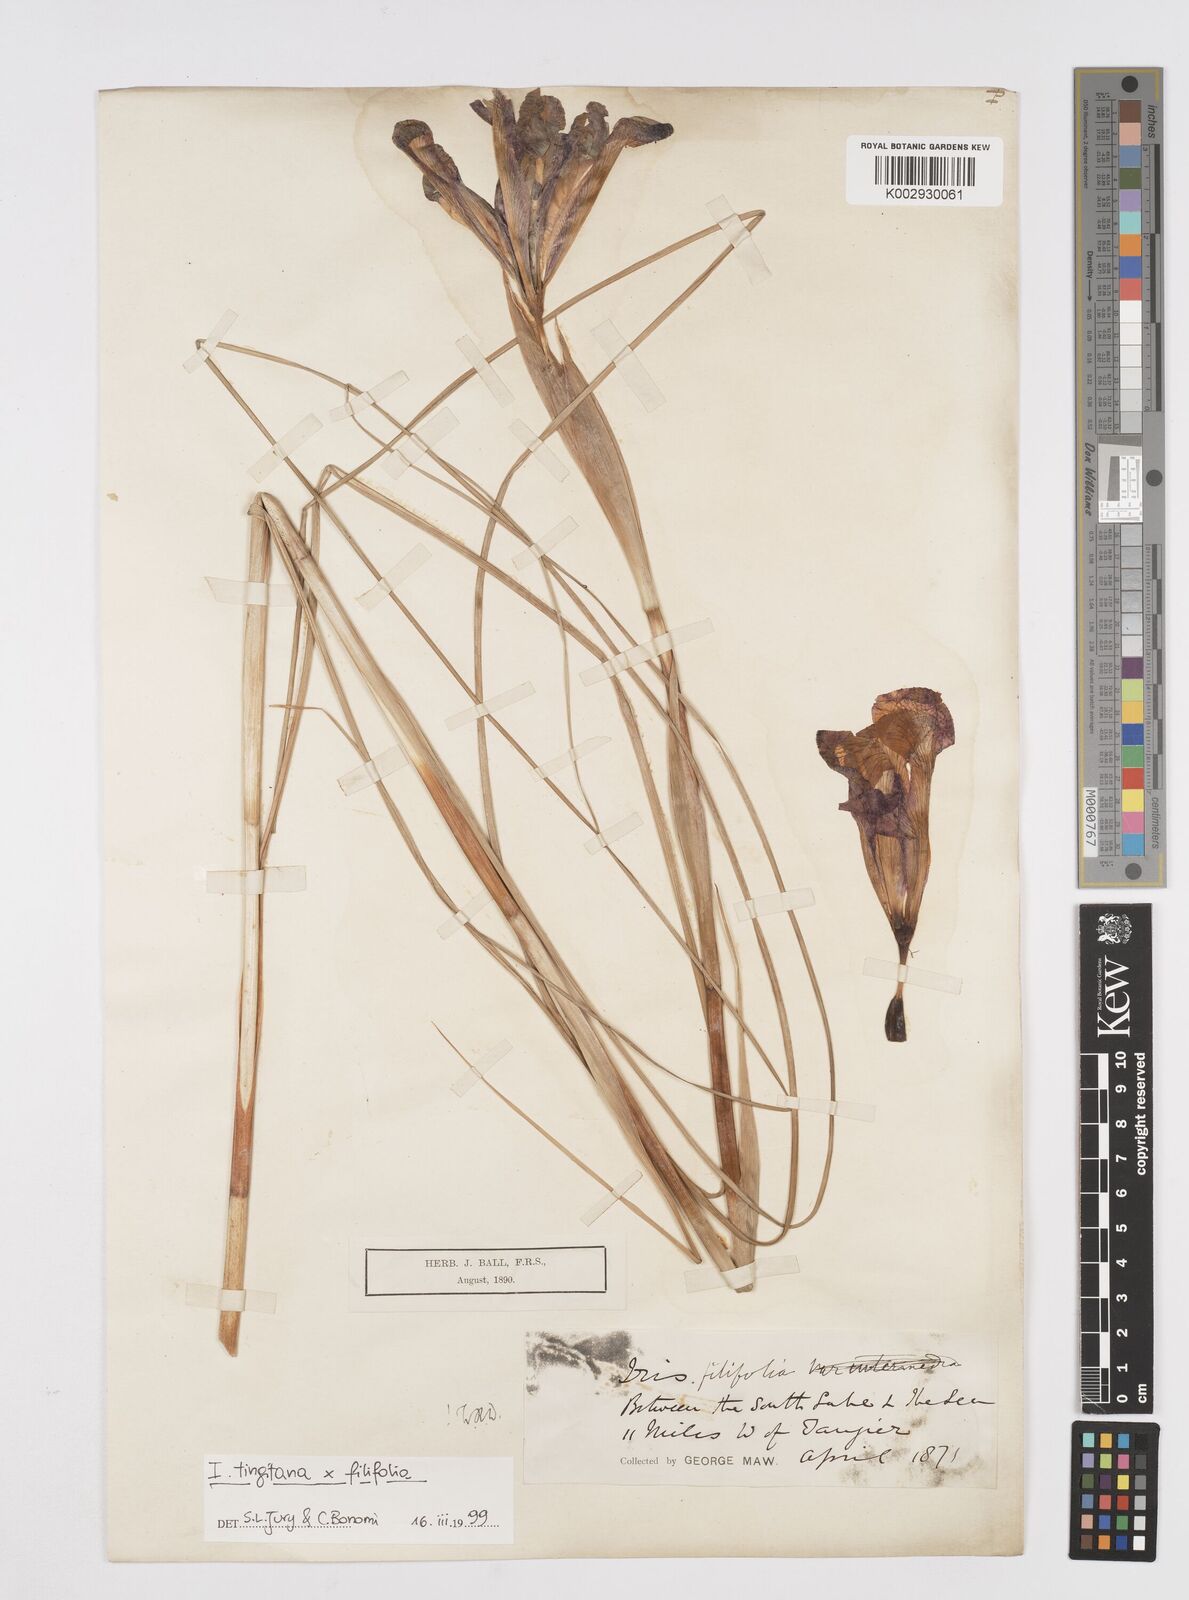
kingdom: Plantae
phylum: Tracheophyta
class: Liliopsida
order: Asparagales
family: Iridaceae
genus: Iris
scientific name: Iris filifolia
